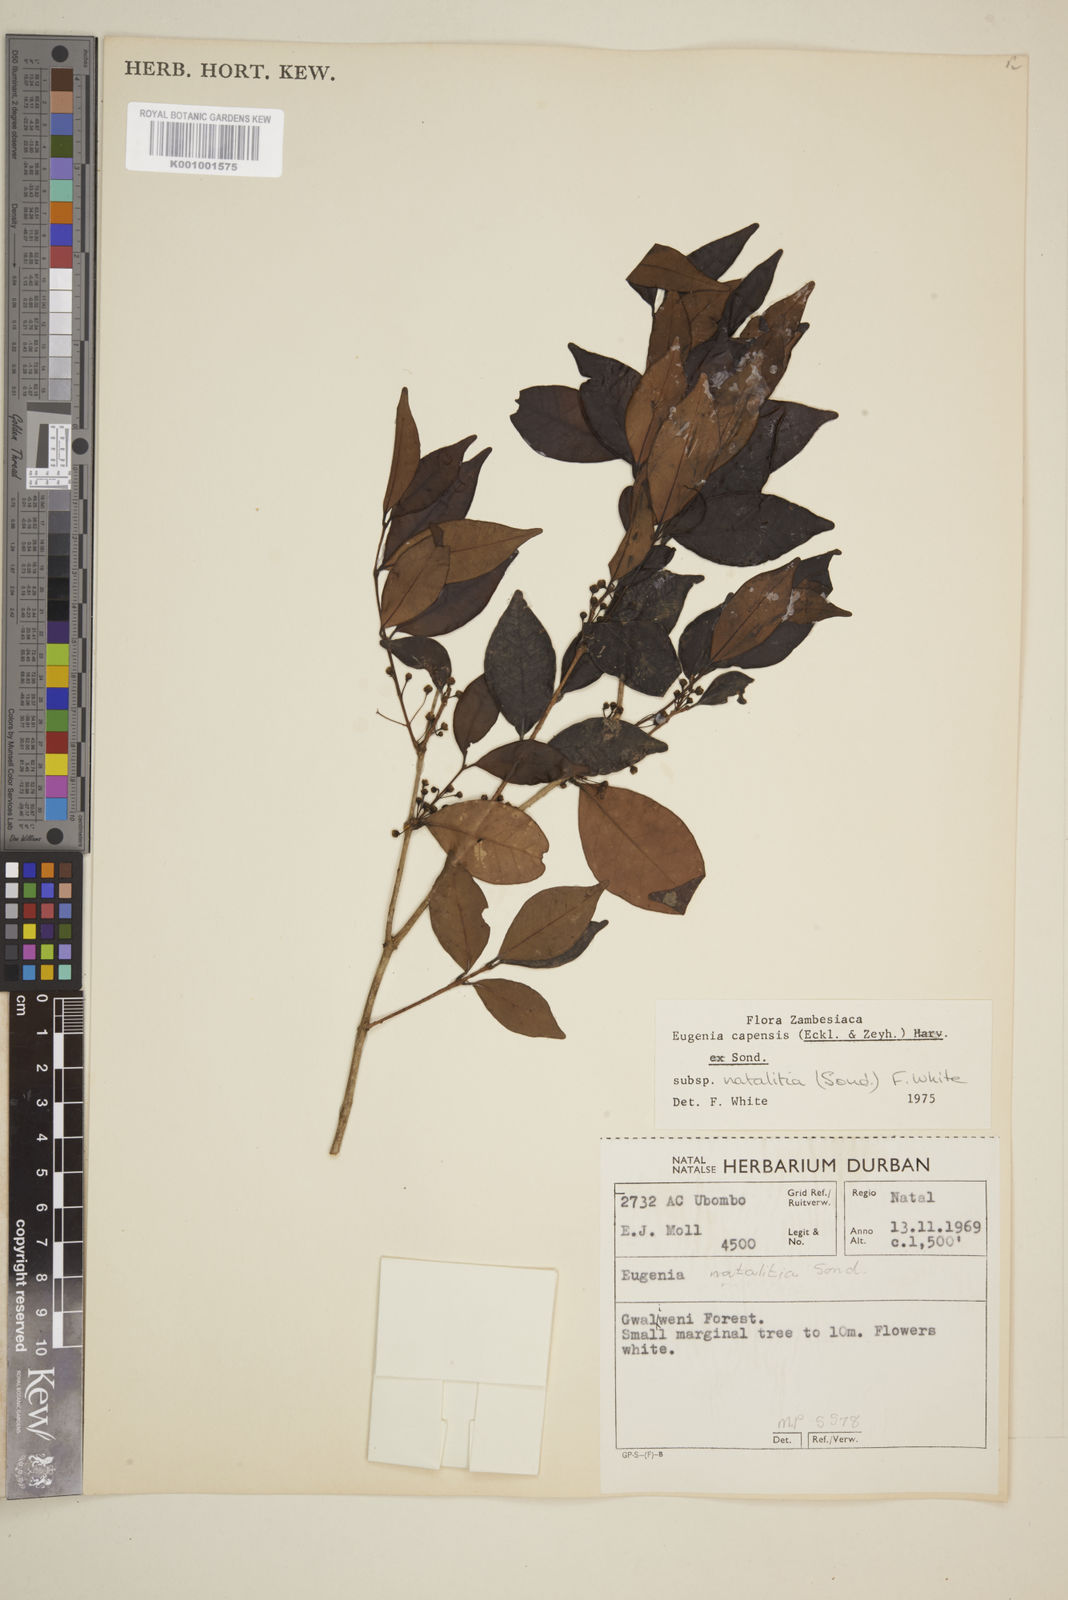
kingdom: Plantae
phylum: Tracheophyta
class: Magnoliopsida
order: Myrtales
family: Myrtaceae
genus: Eugenia
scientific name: Eugenia natalitia
